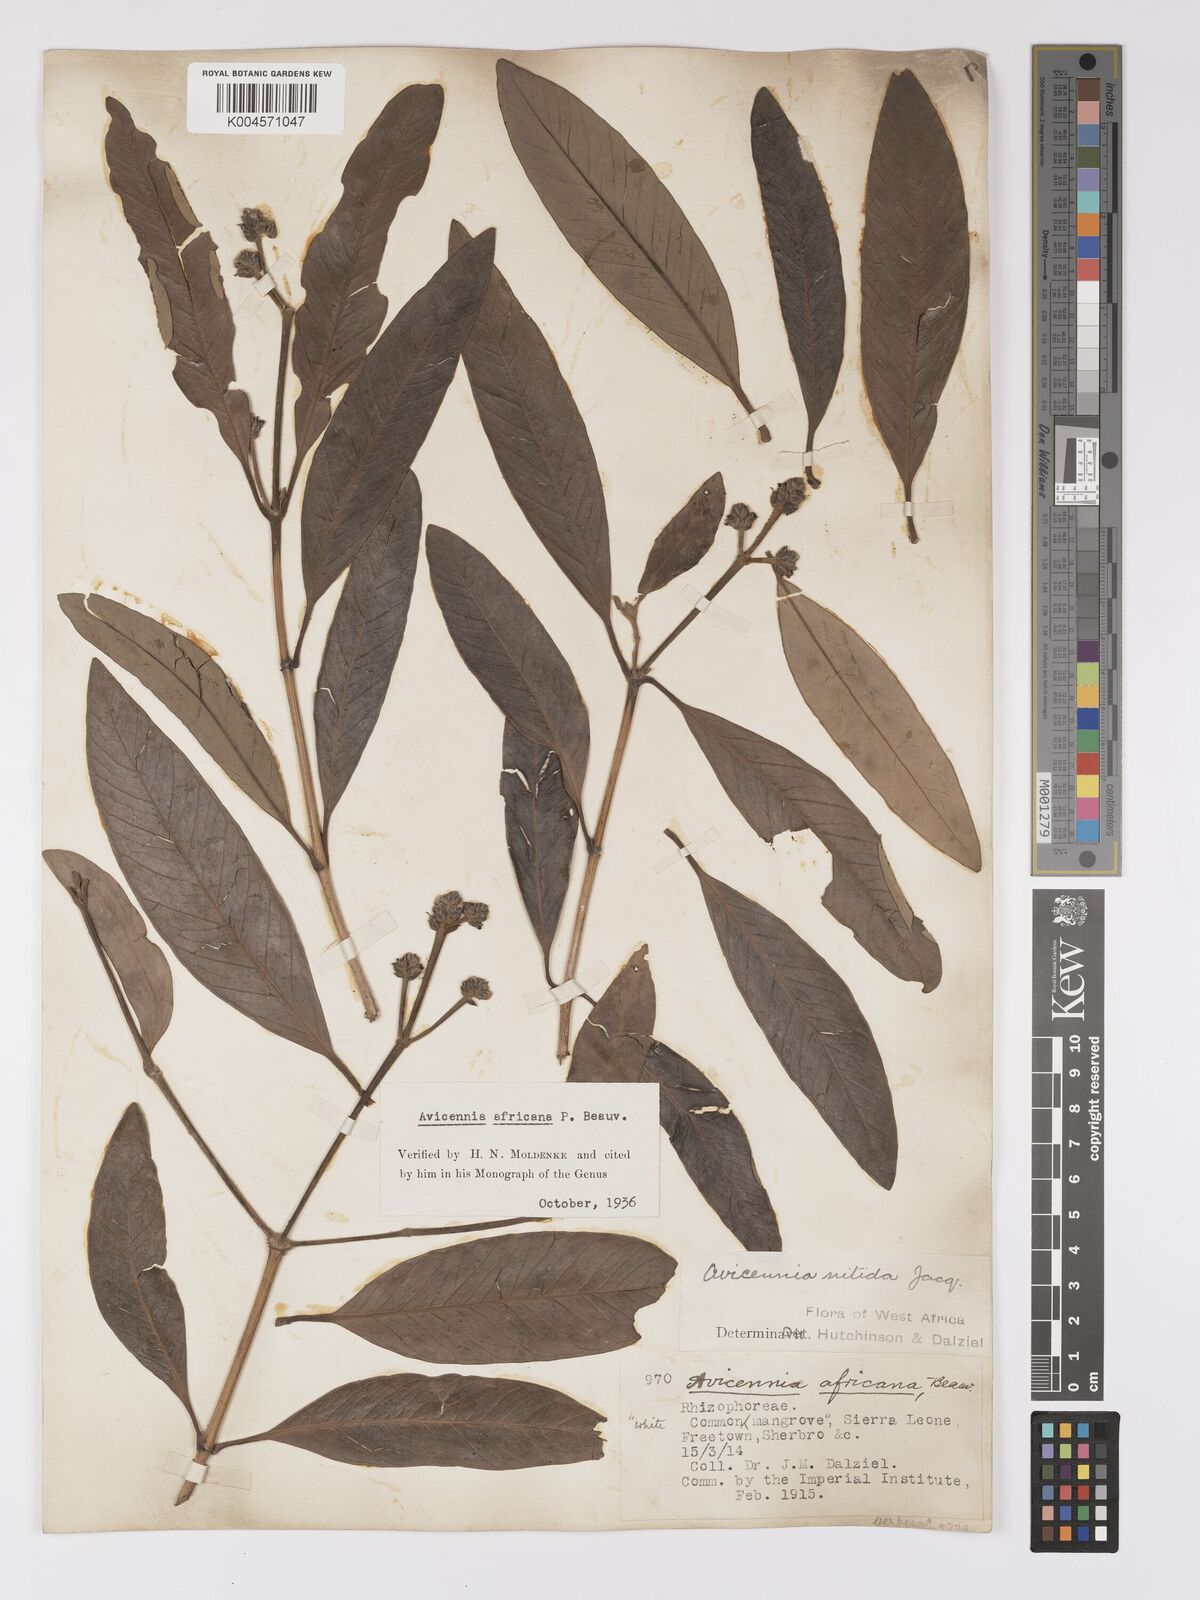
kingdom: Plantae
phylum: Tracheophyta
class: Magnoliopsida
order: Lamiales
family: Acanthaceae
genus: Avicennia
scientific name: Avicennia germinans
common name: Black mangrove
